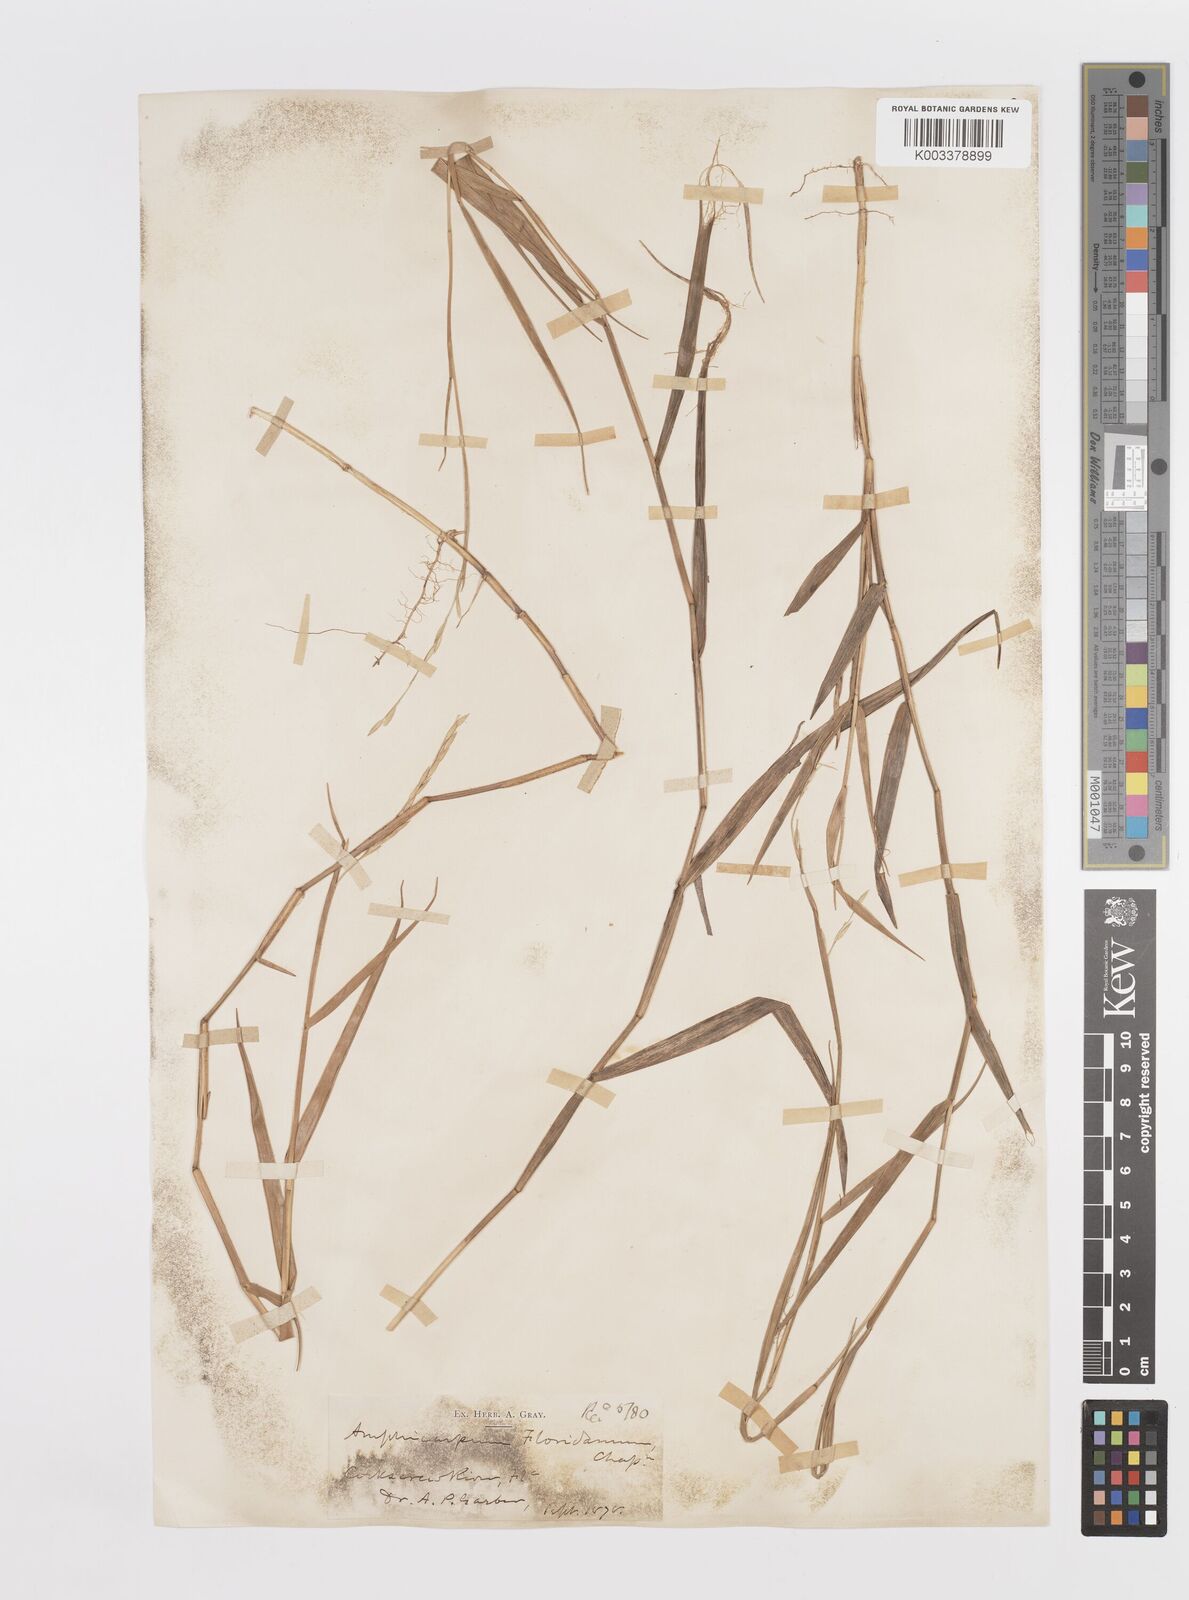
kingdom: Plantae
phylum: Tracheophyta
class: Liliopsida
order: Poales
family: Poaceae
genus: Amphicarpum
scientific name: Amphicarpum muehlenbergianum
